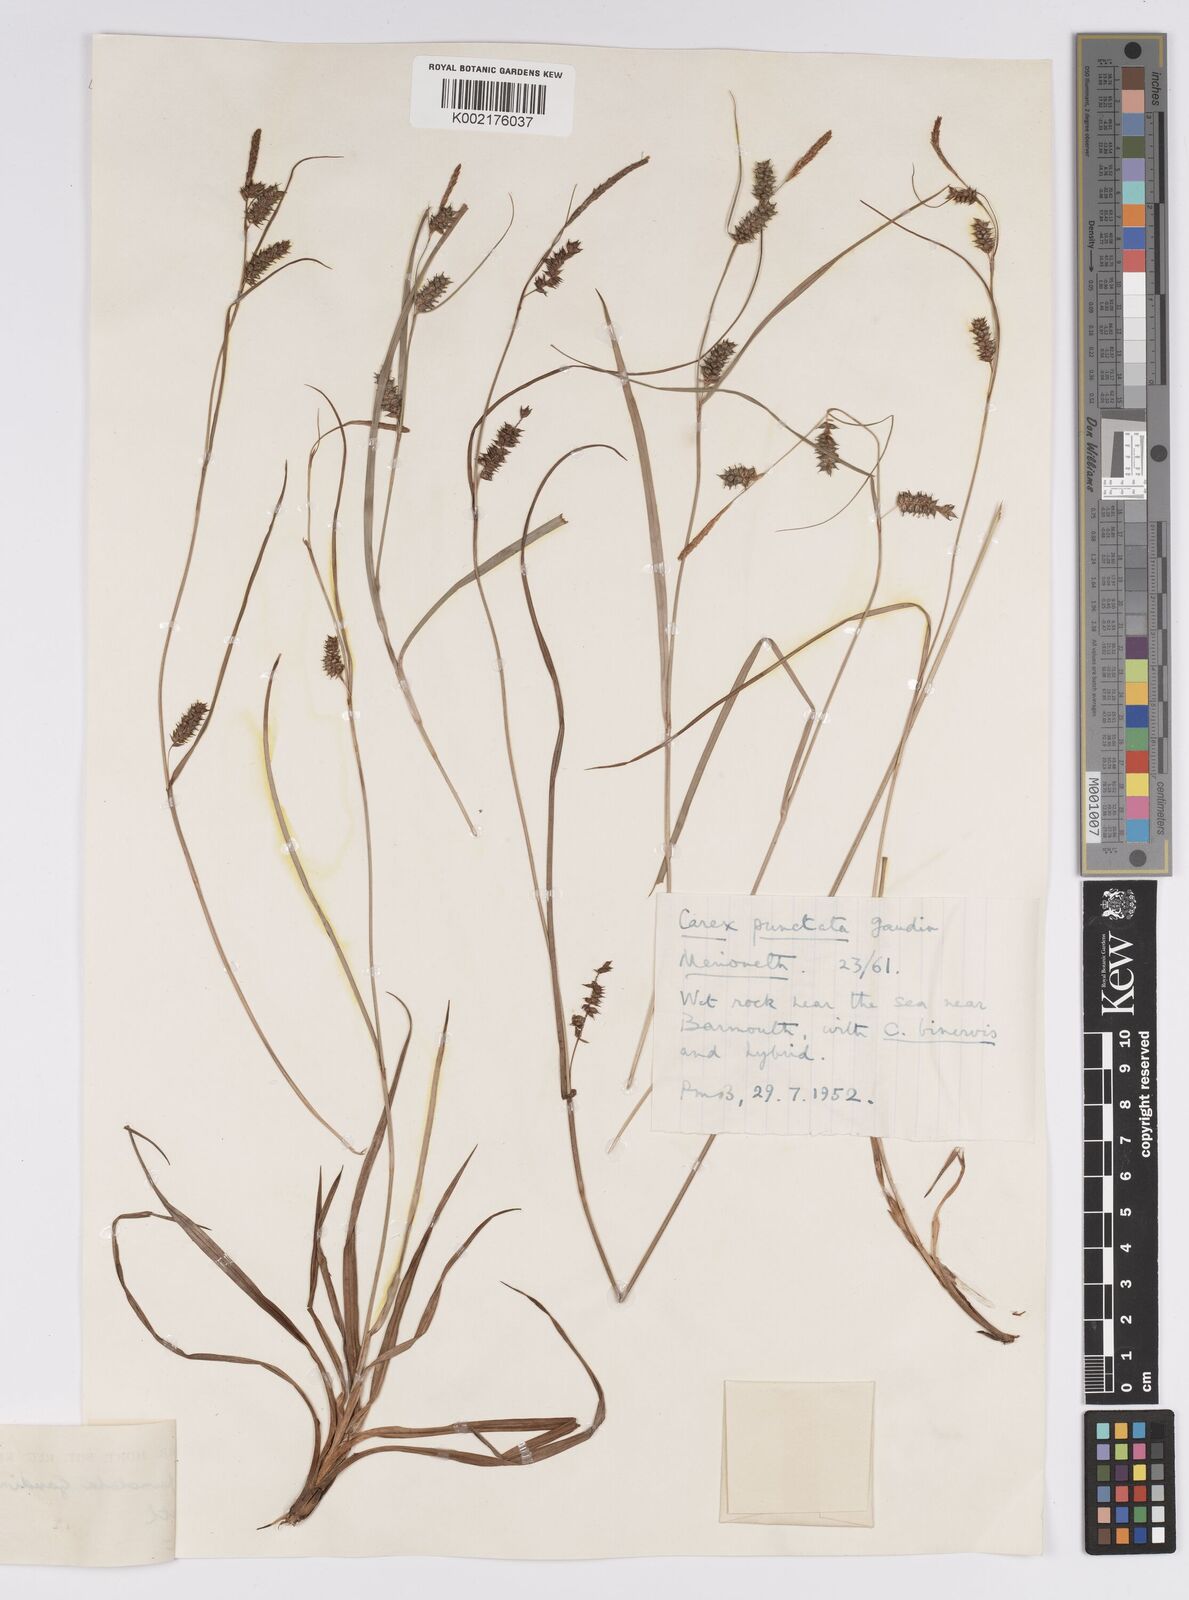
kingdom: Plantae
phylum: Tracheophyta
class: Liliopsida
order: Poales
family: Cyperaceae
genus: Carex
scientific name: Carex punctata
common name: Dotted sedge
